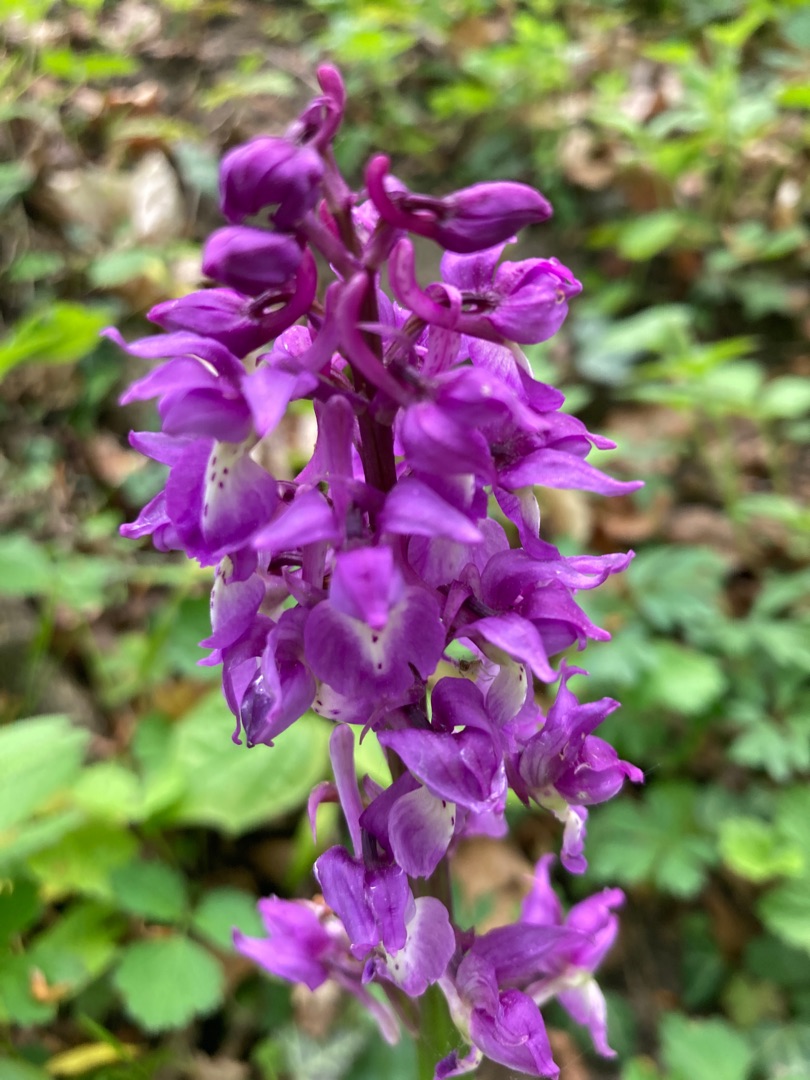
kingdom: Plantae
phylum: Tracheophyta
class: Liliopsida
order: Asparagales
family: Orchidaceae
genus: Orchis
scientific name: Orchis mascula
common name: Tyndakset gøgeurt
